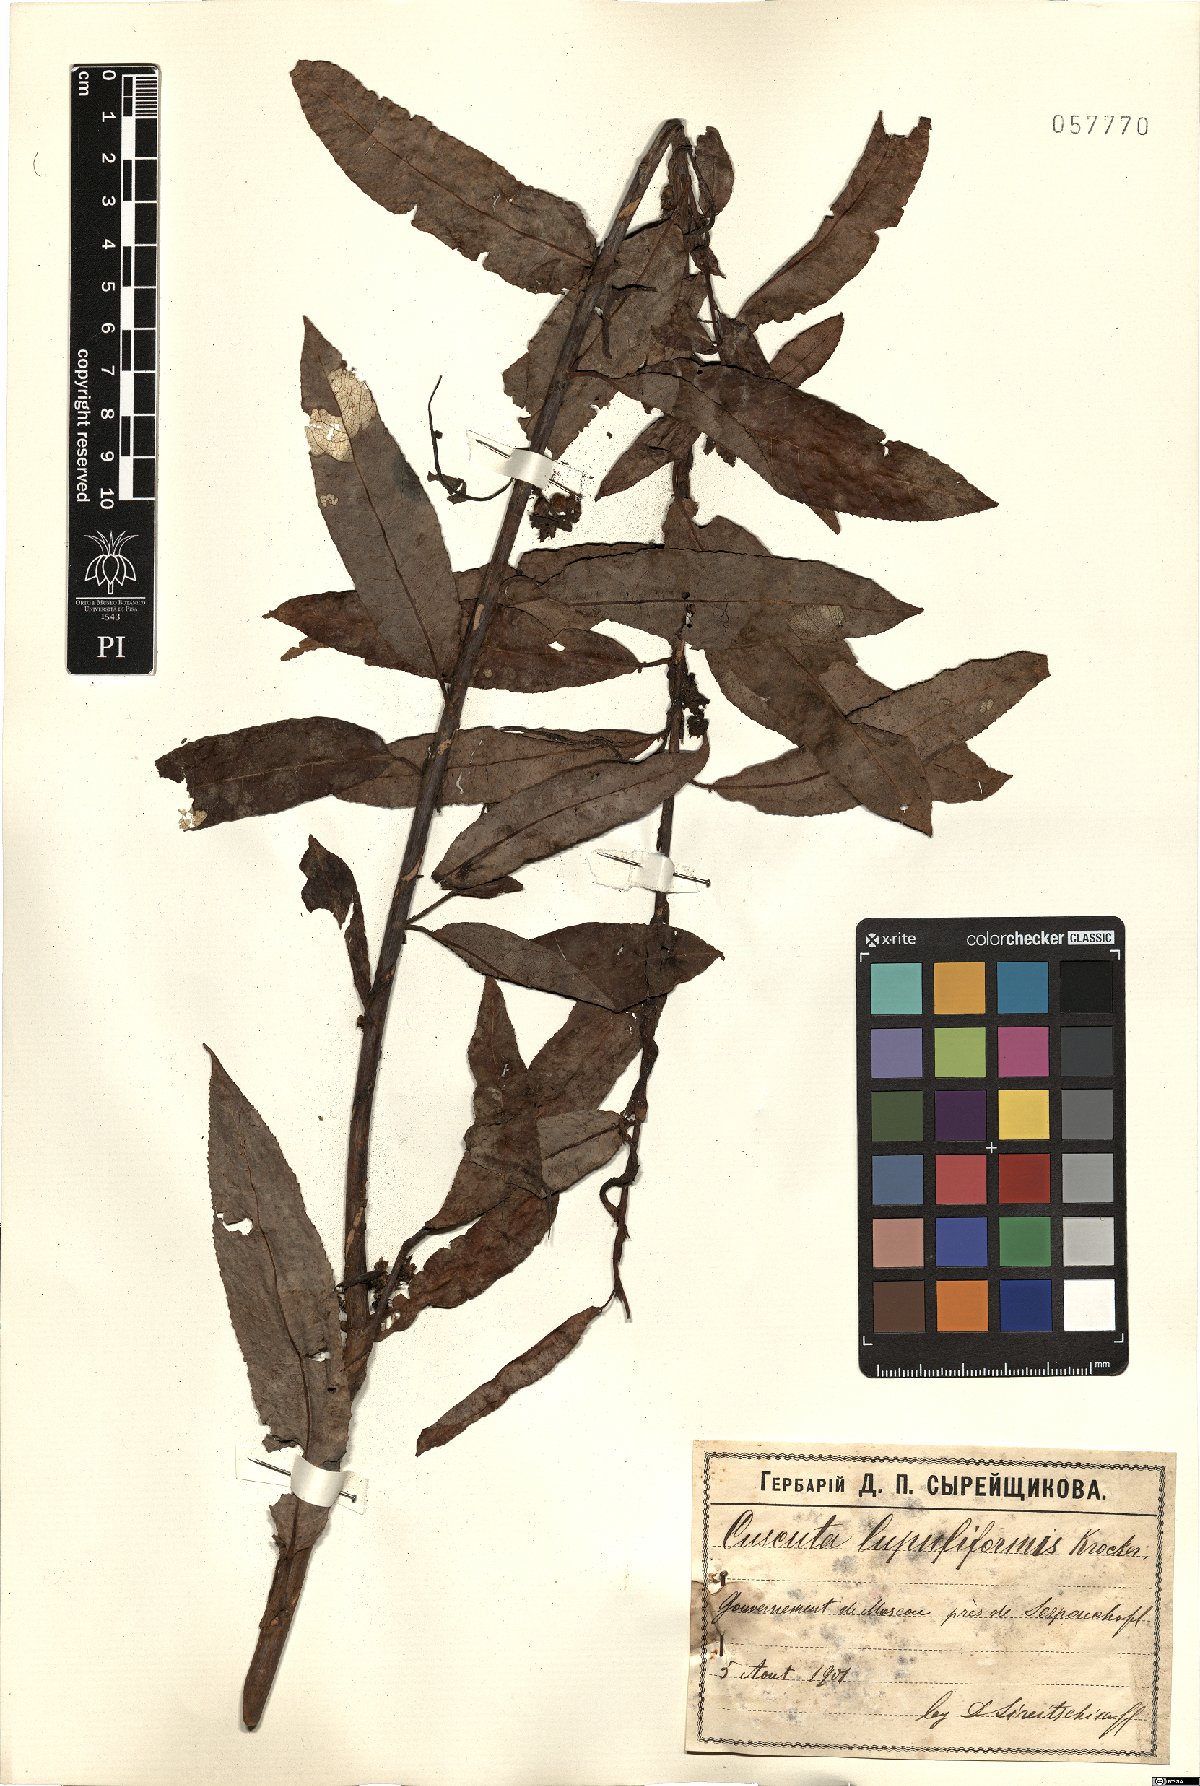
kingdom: Plantae
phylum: Tracheophyta
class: Magnoliopsida
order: Solanales
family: Convolvulaceae
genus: Cuscuta
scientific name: Cuscuta lupuliformis
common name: Hop dodder
